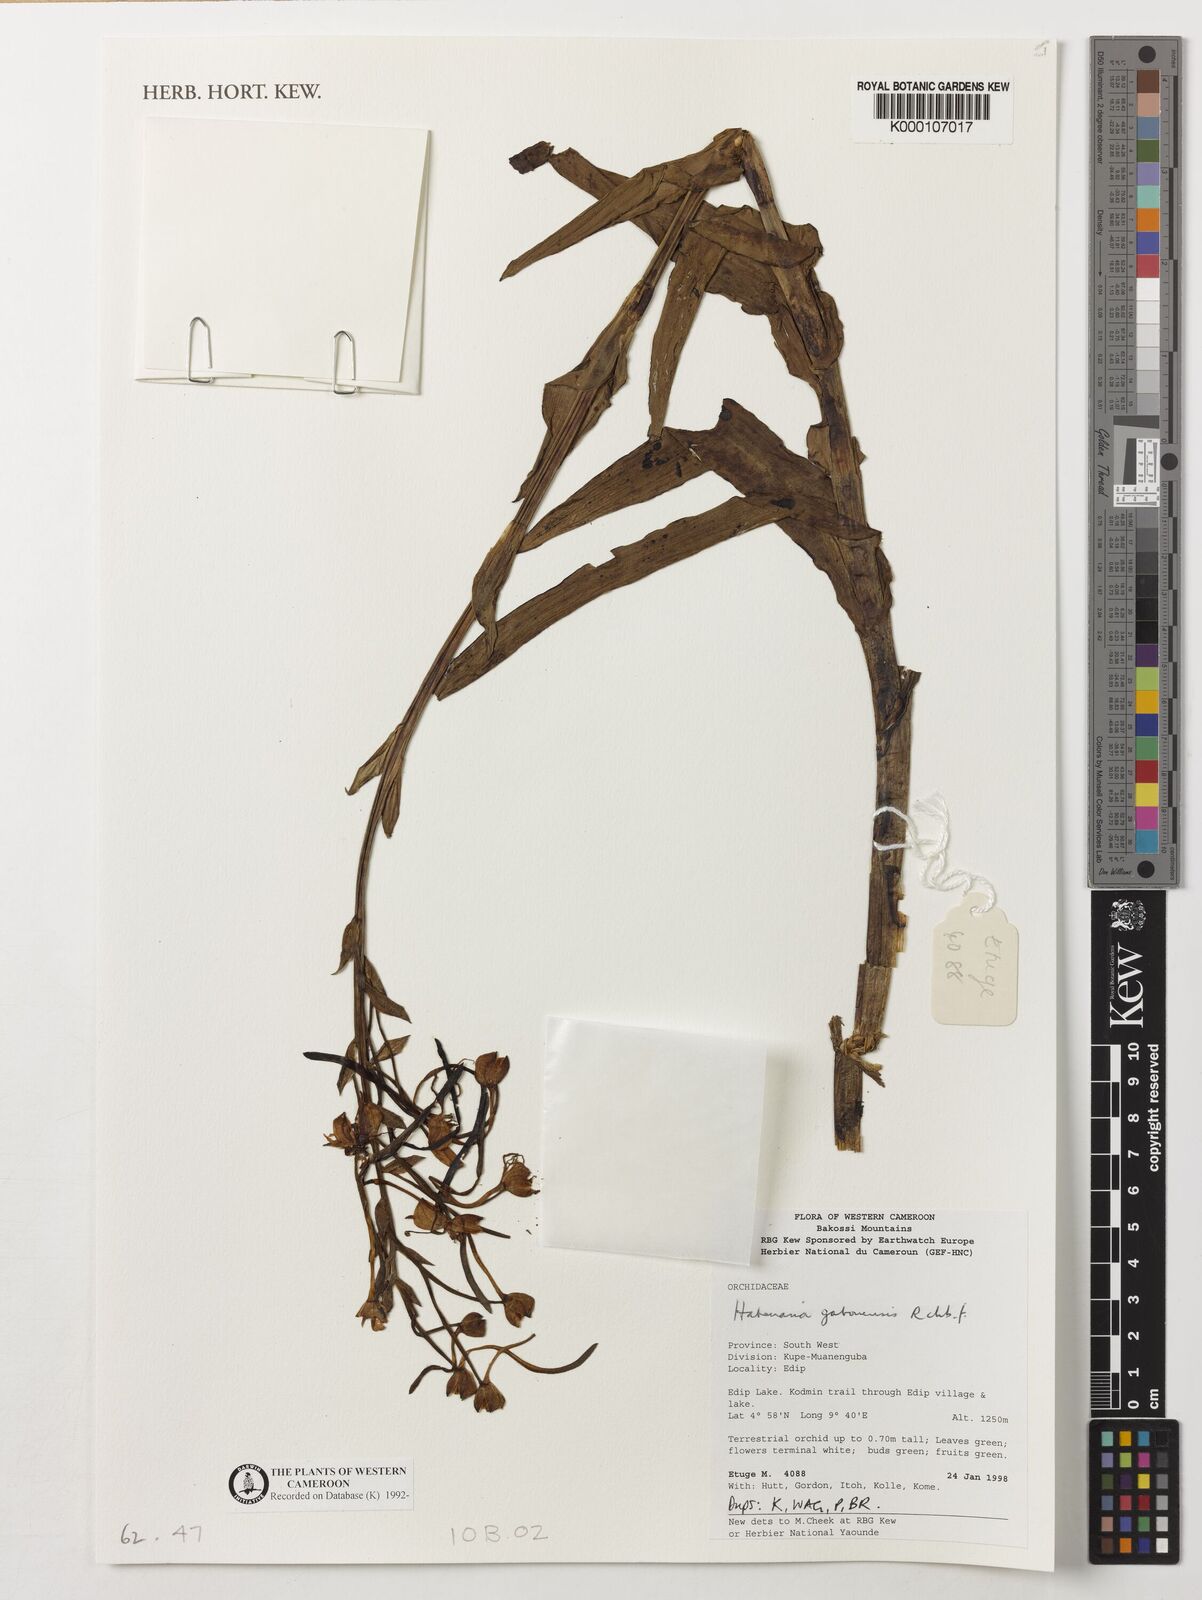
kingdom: Plantae
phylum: Tracheophyta
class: Liliopsida
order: Asparagales
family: Orchidaceae
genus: Habenaria
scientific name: Habenaria procera
